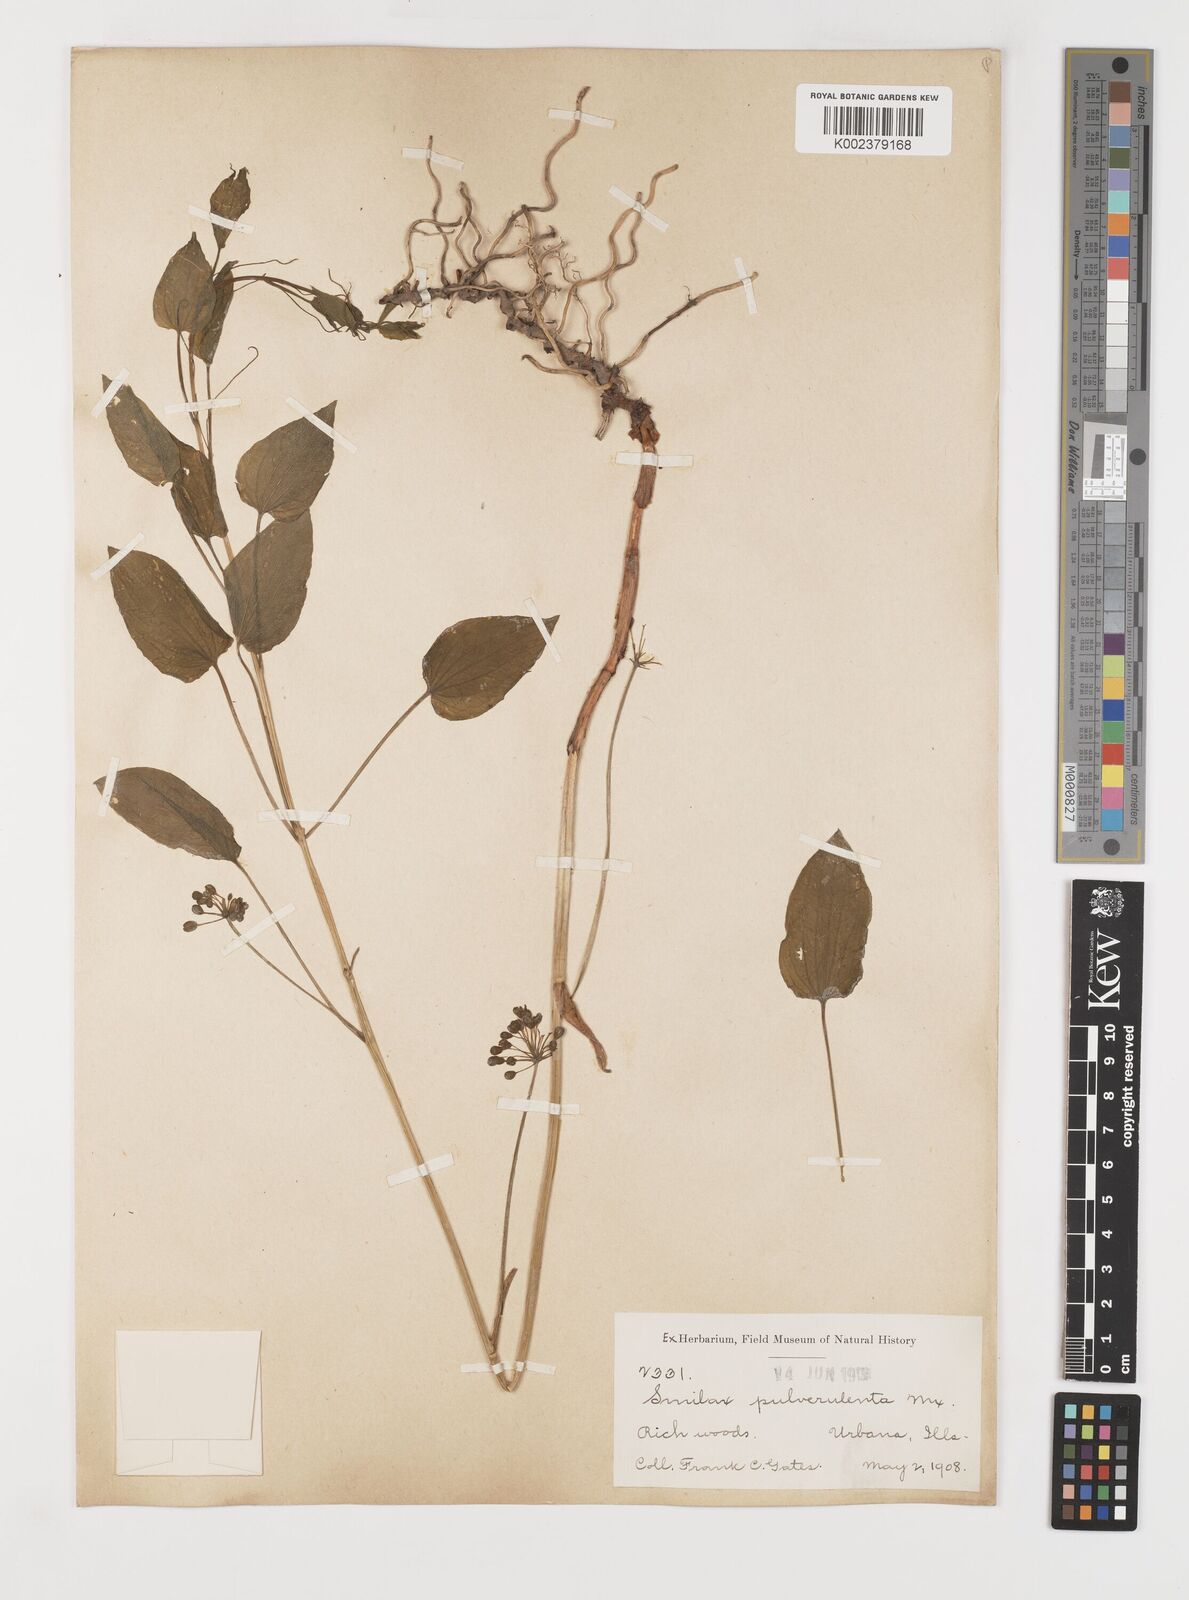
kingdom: Plantae
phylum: Tracheophyta
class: Liliopsida
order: Liliales
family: Smilacaceae
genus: Smilax
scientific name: Smilax herbacea
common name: Jacob's-ladder
